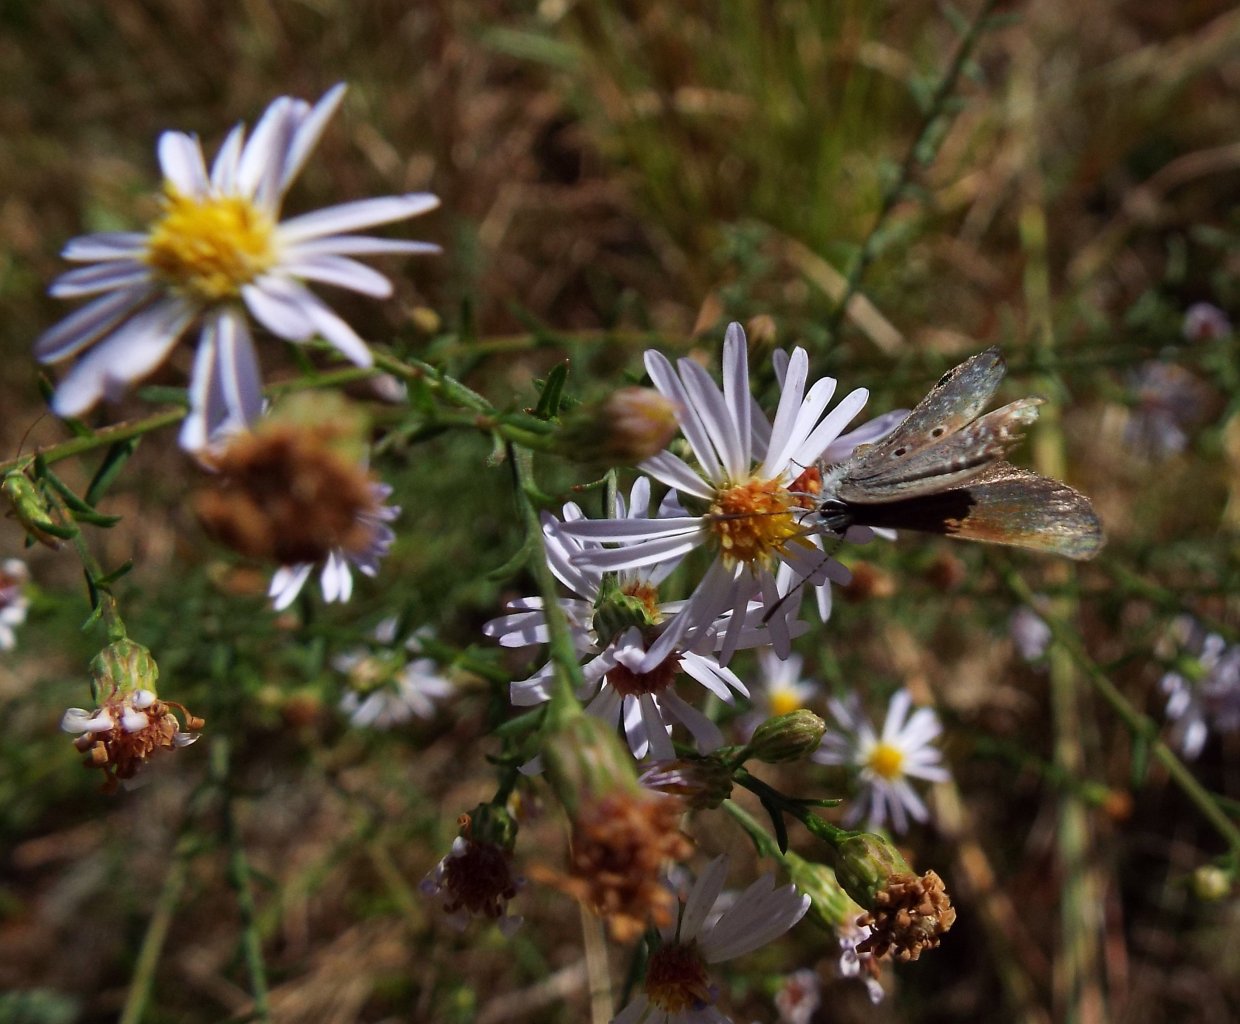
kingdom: Animalia
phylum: Arthropoda
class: Insecta
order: Lepidoptera
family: Lycaenidae
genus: Hemiargus
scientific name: Hemiargus ceraunus
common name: Ceraunus Blue
